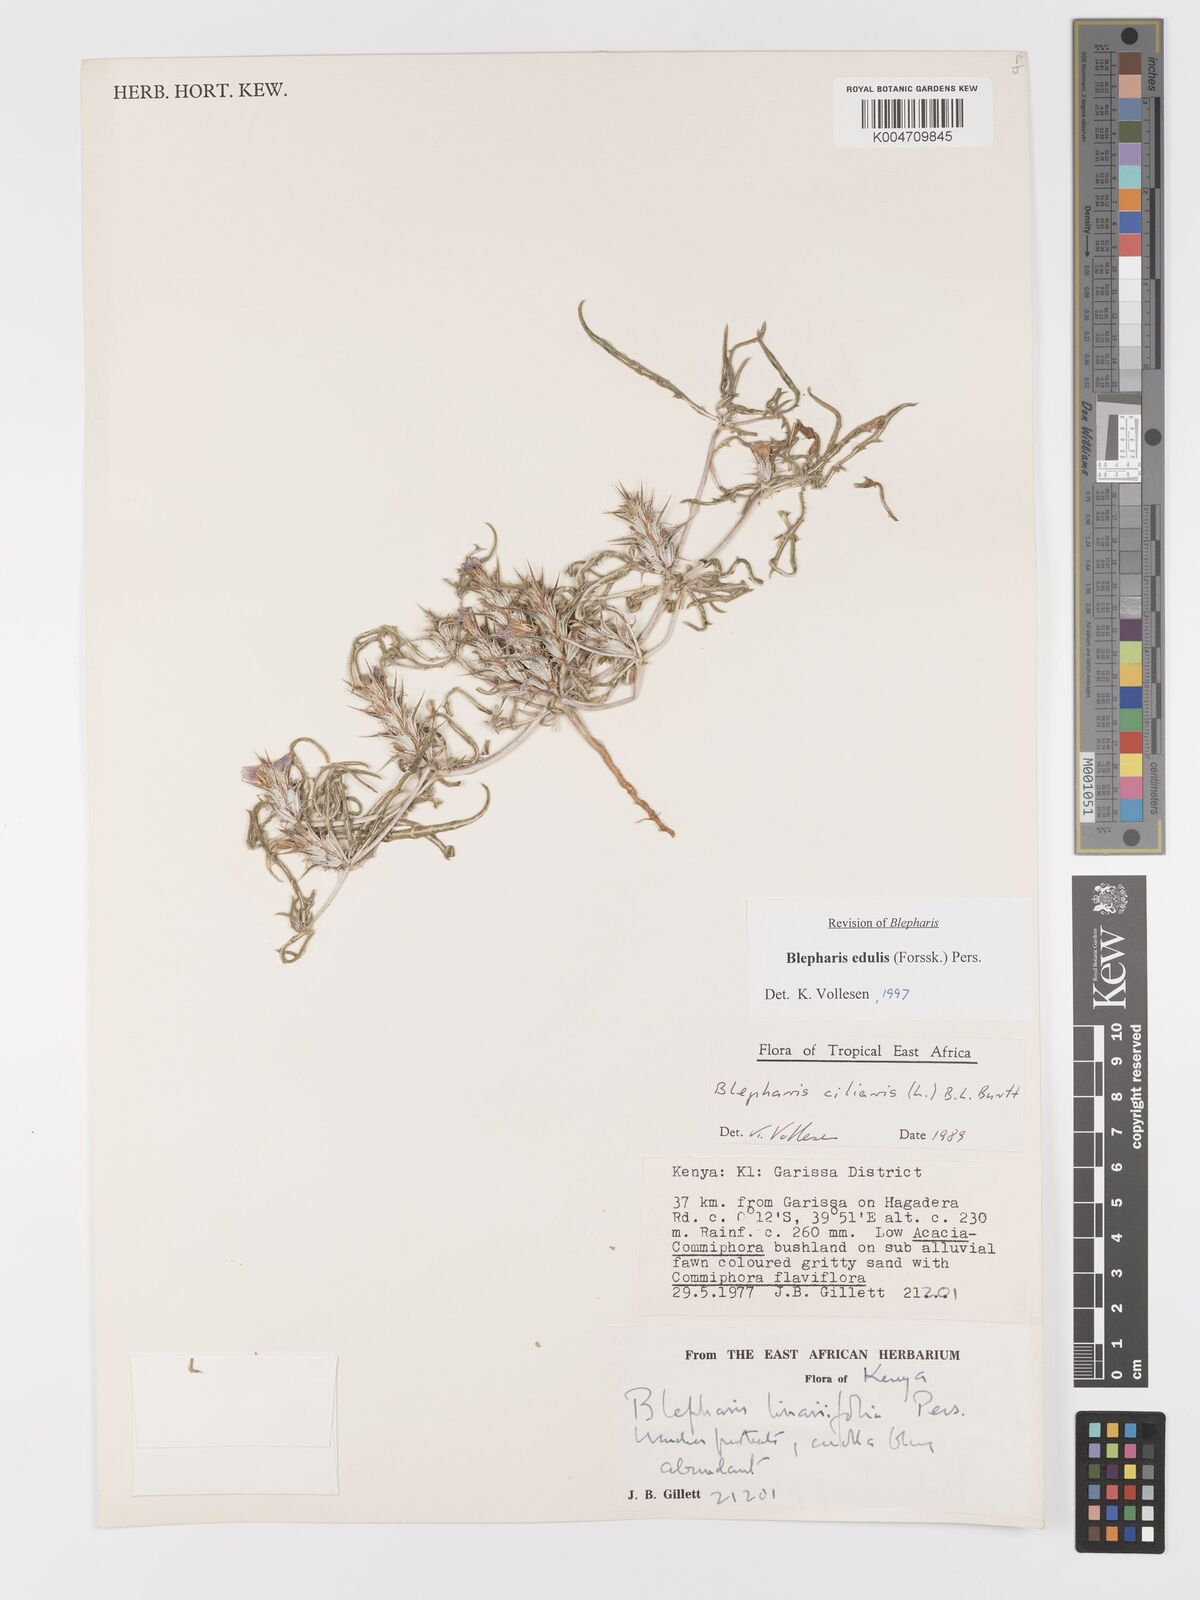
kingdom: Plantae
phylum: Tracheophyta
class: Magnoliopsida
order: Lamiales
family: Acanthaceae
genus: Blepharis
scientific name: Blepharis edulis
